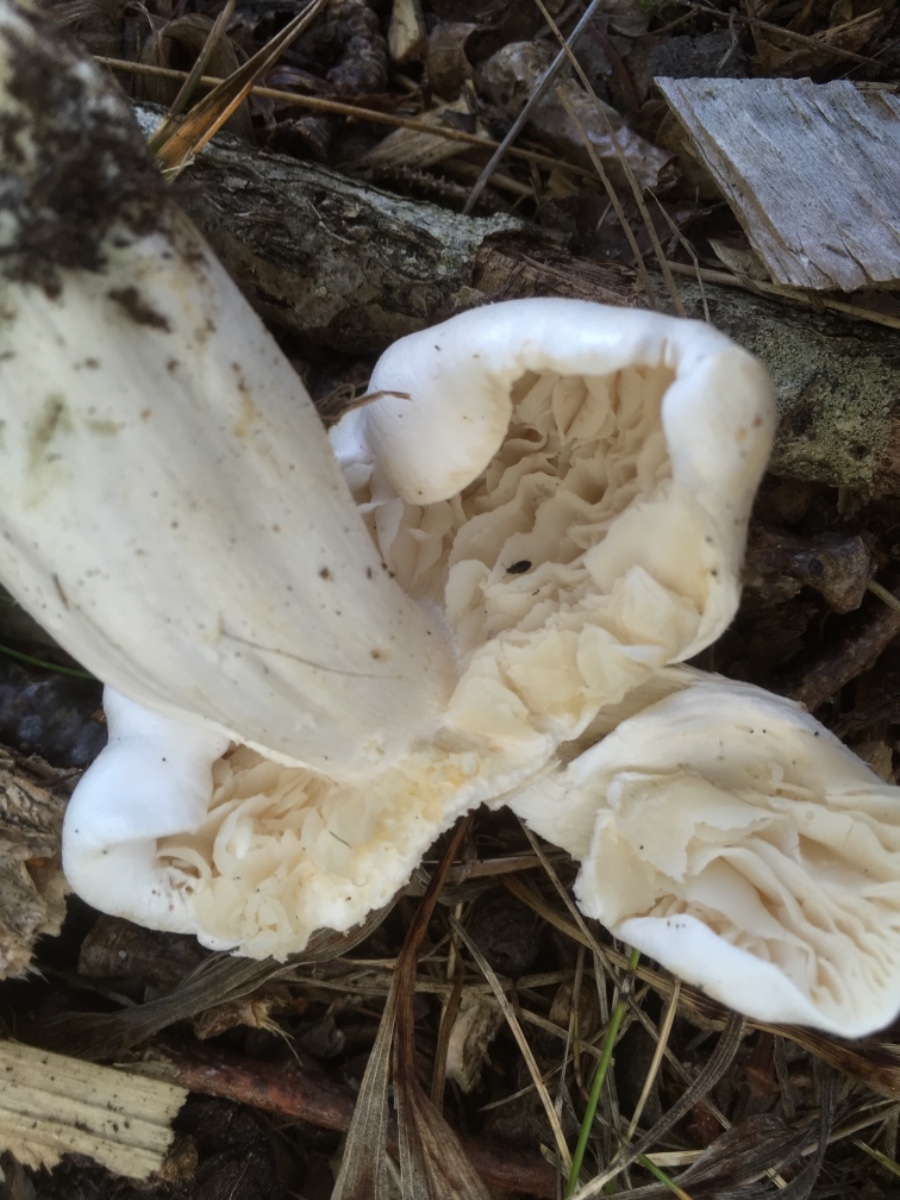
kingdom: Fungi
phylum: Basidiomycota
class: Agaricomycetes
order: Agaricales
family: Tricholomataceae
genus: Tricholoma
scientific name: Tricholoma
